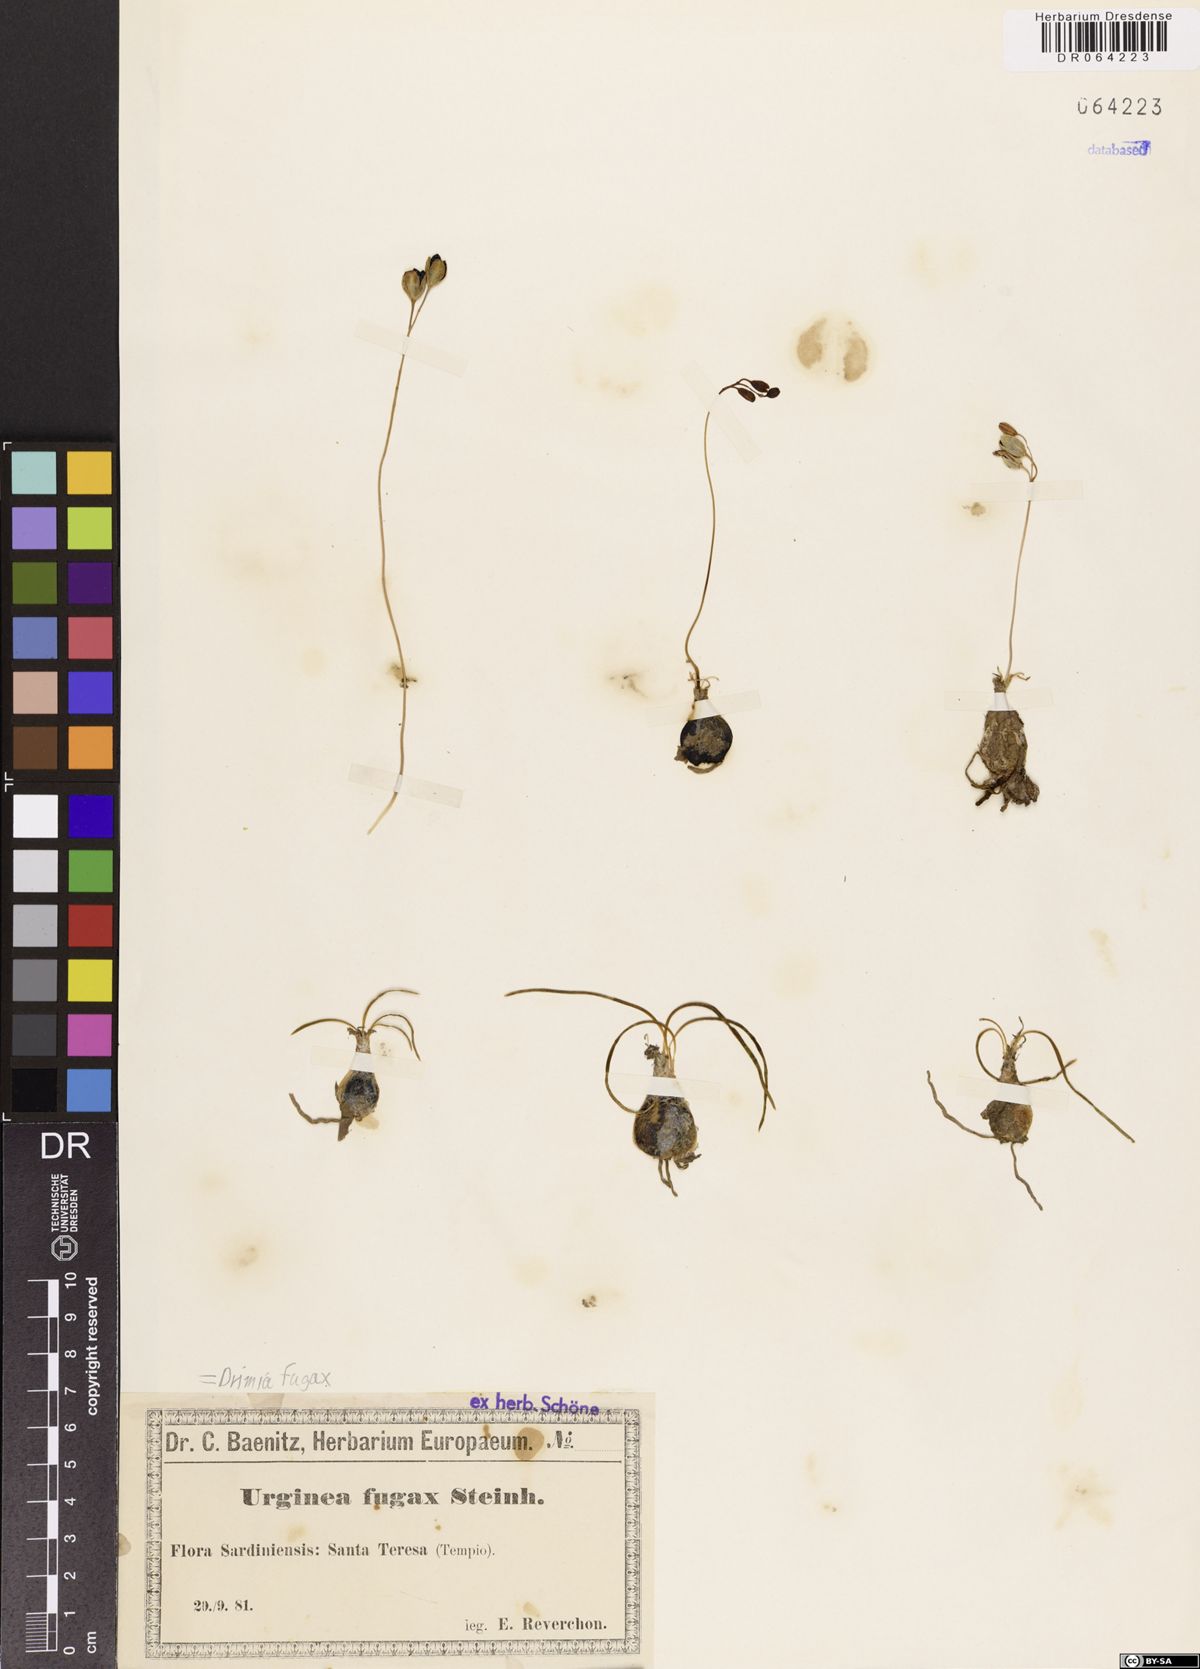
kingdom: Plantae
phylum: Tracheophyta
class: Liliopsida
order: Asparagales
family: Asparagaceae
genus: Drimia
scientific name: Drimia fugax
